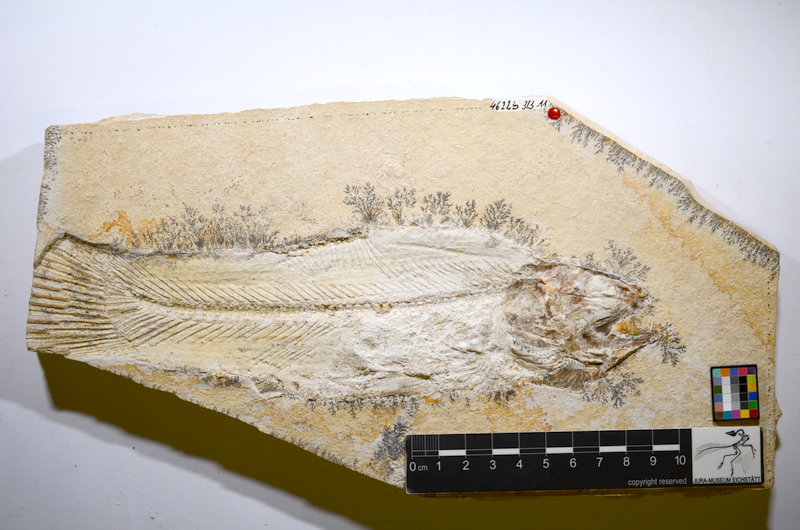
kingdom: Animalia
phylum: Chordata
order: Amiiformes
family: Amiidae
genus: Amiopsis
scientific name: Amiopsis lepidota
